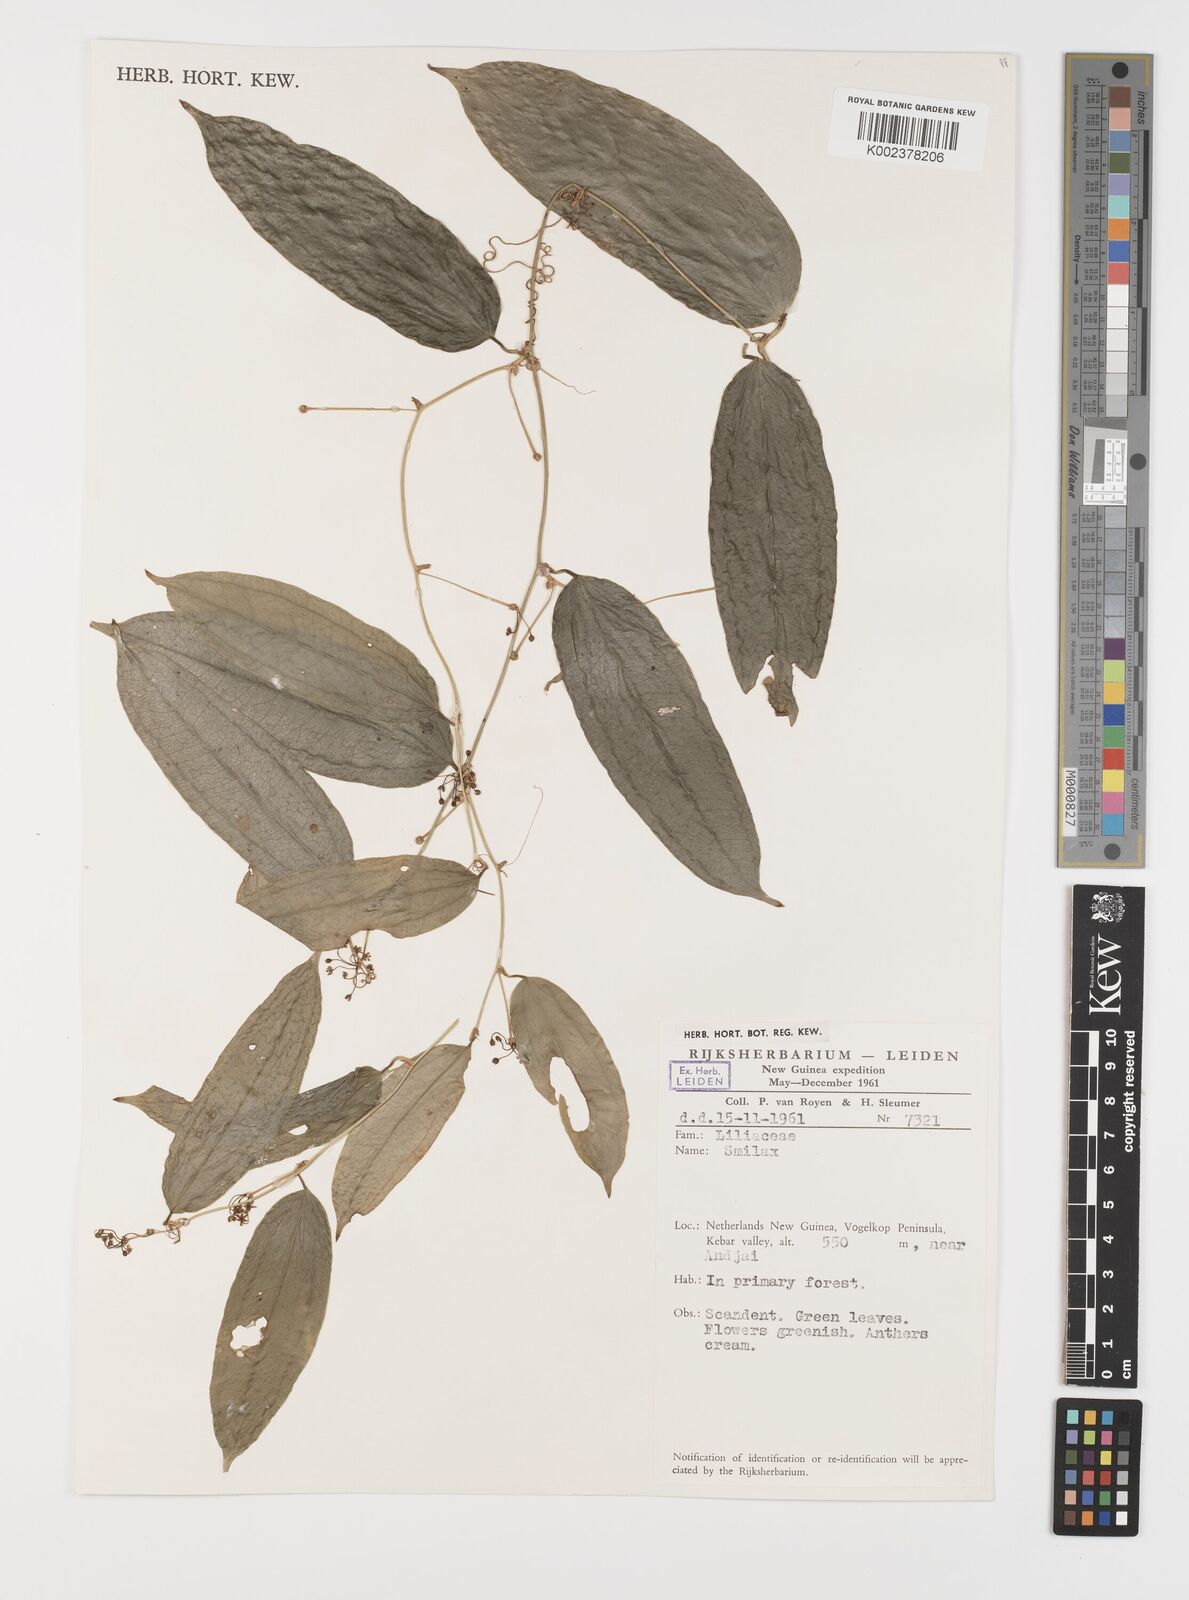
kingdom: Plantae
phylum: Tracheophyta
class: Liliopsida
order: Liliales
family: Smilacaceae
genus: Smilax
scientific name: Smilax
